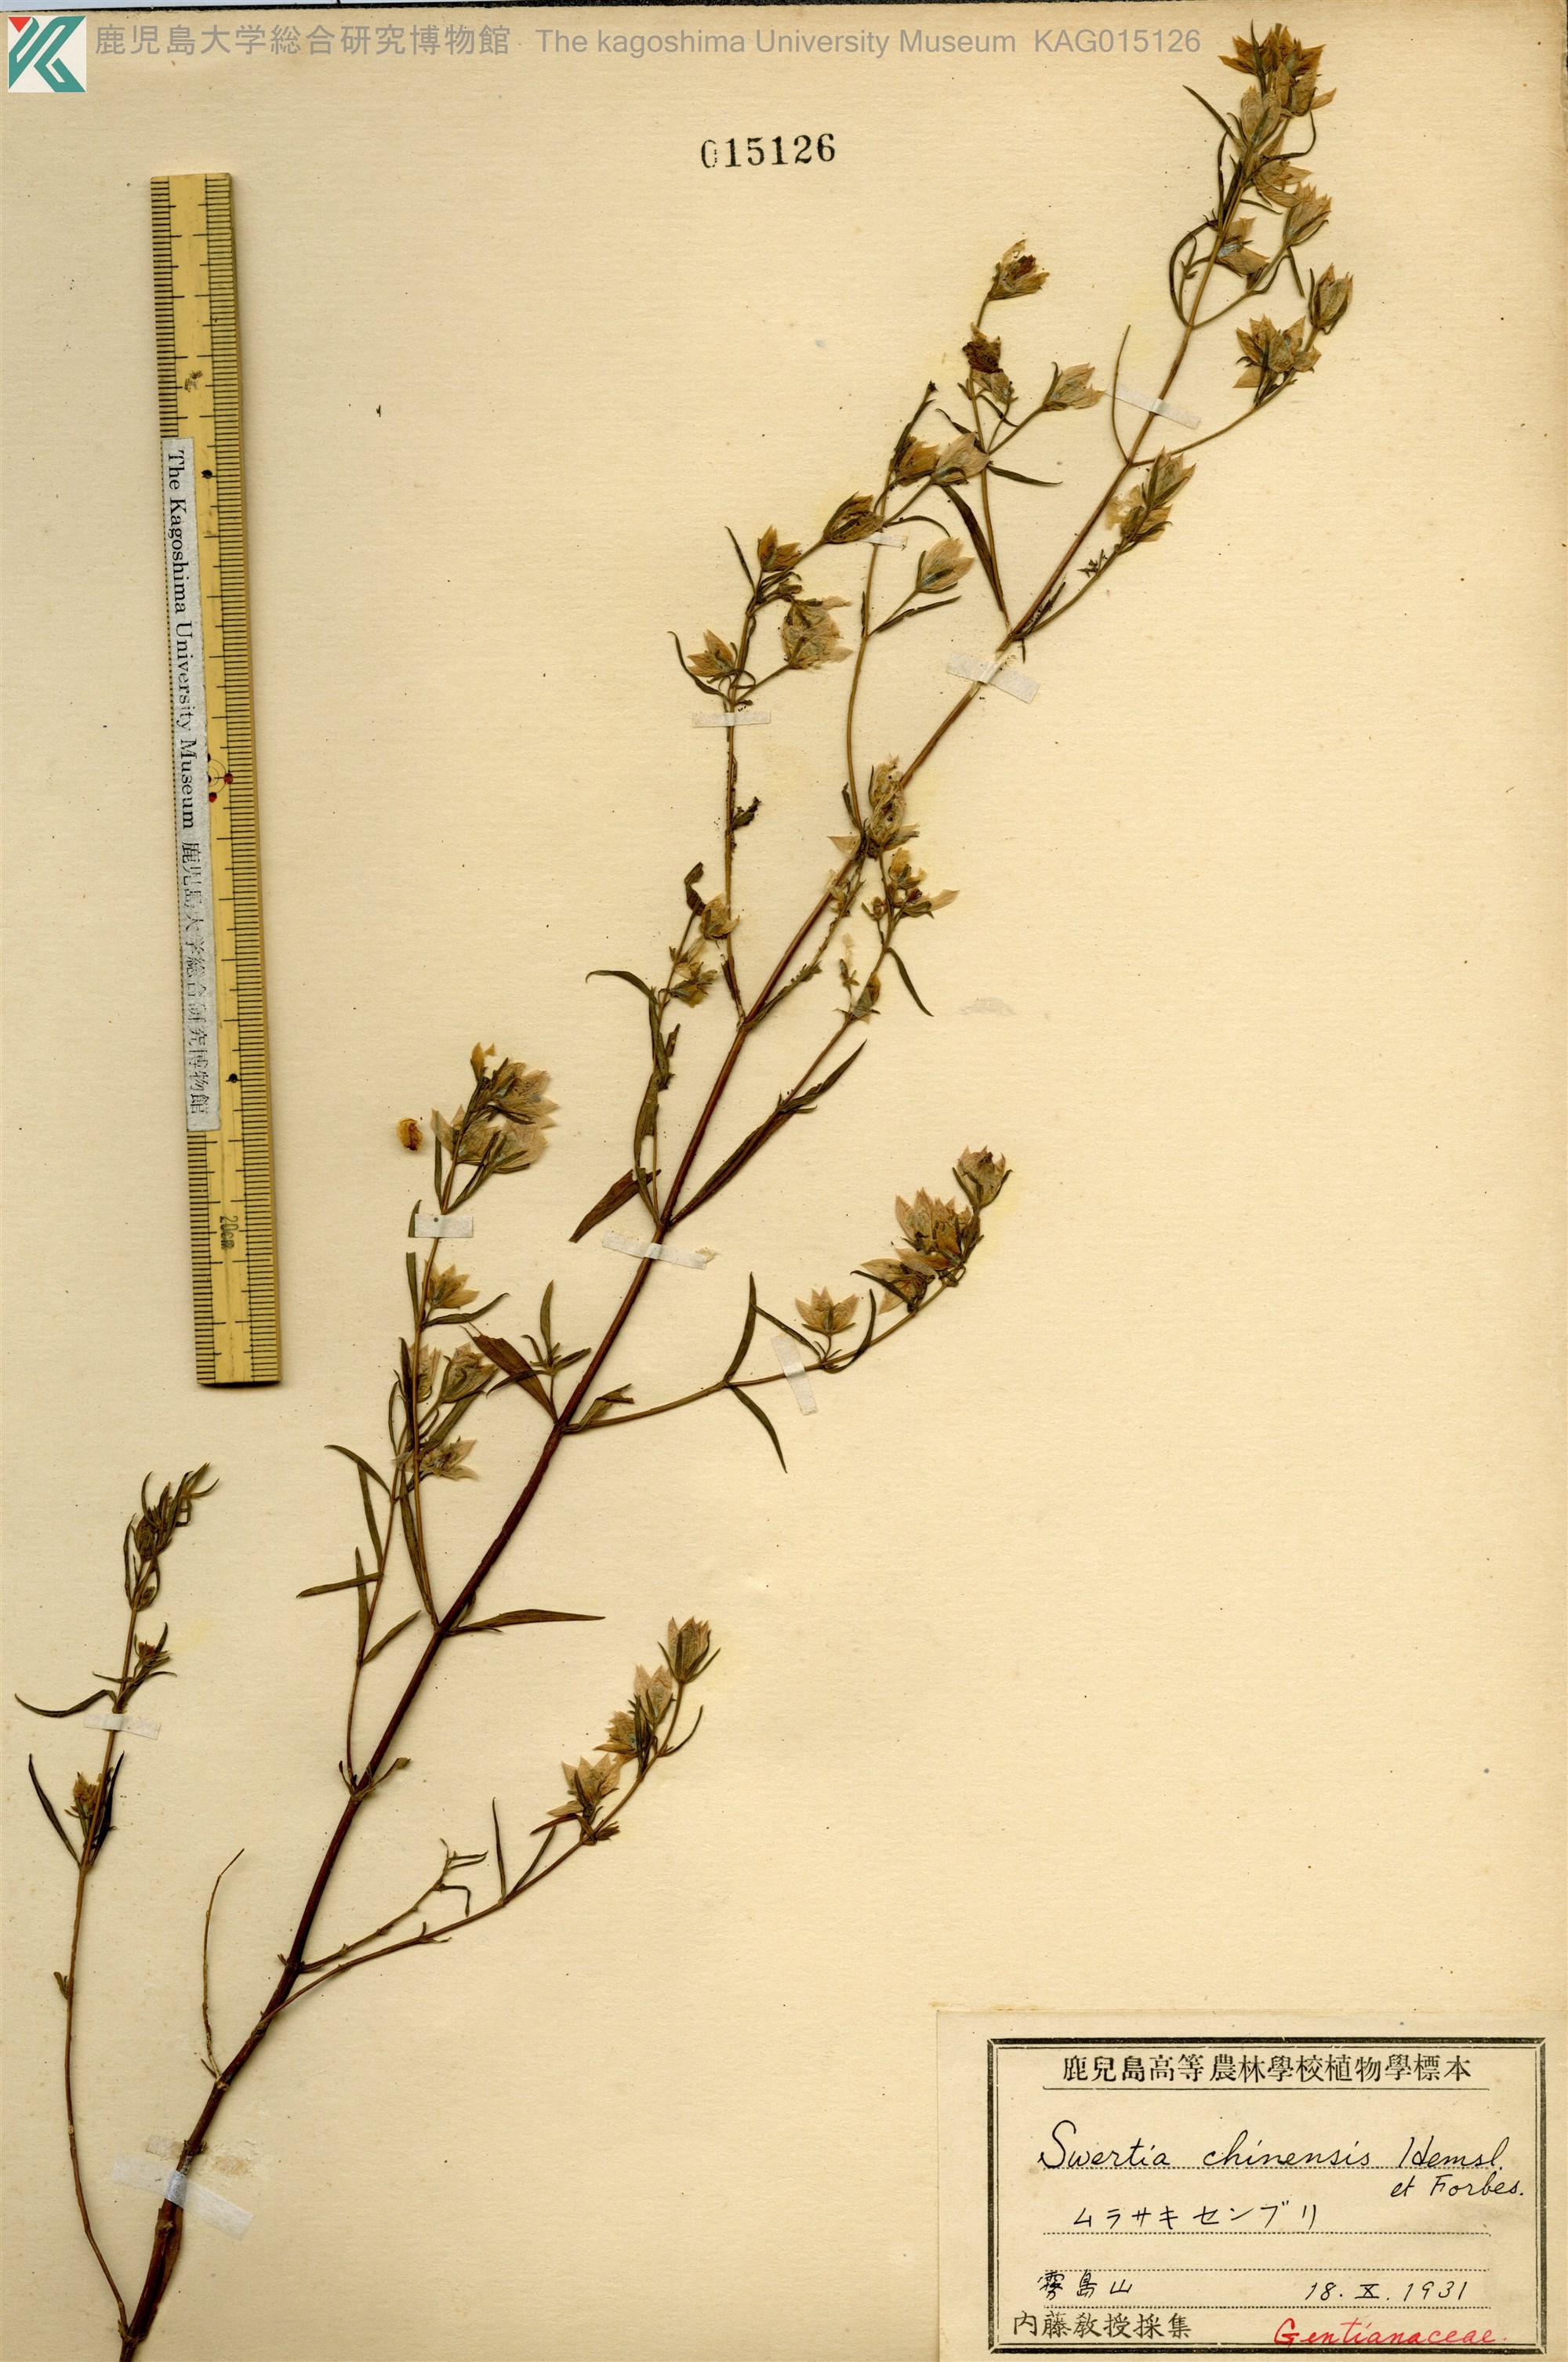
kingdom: Plantae
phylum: Tracheophyta
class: Magnoliopsida
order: Gentianales
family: Gentianaceae
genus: Swertia
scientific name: Swertia pseudochinensis
